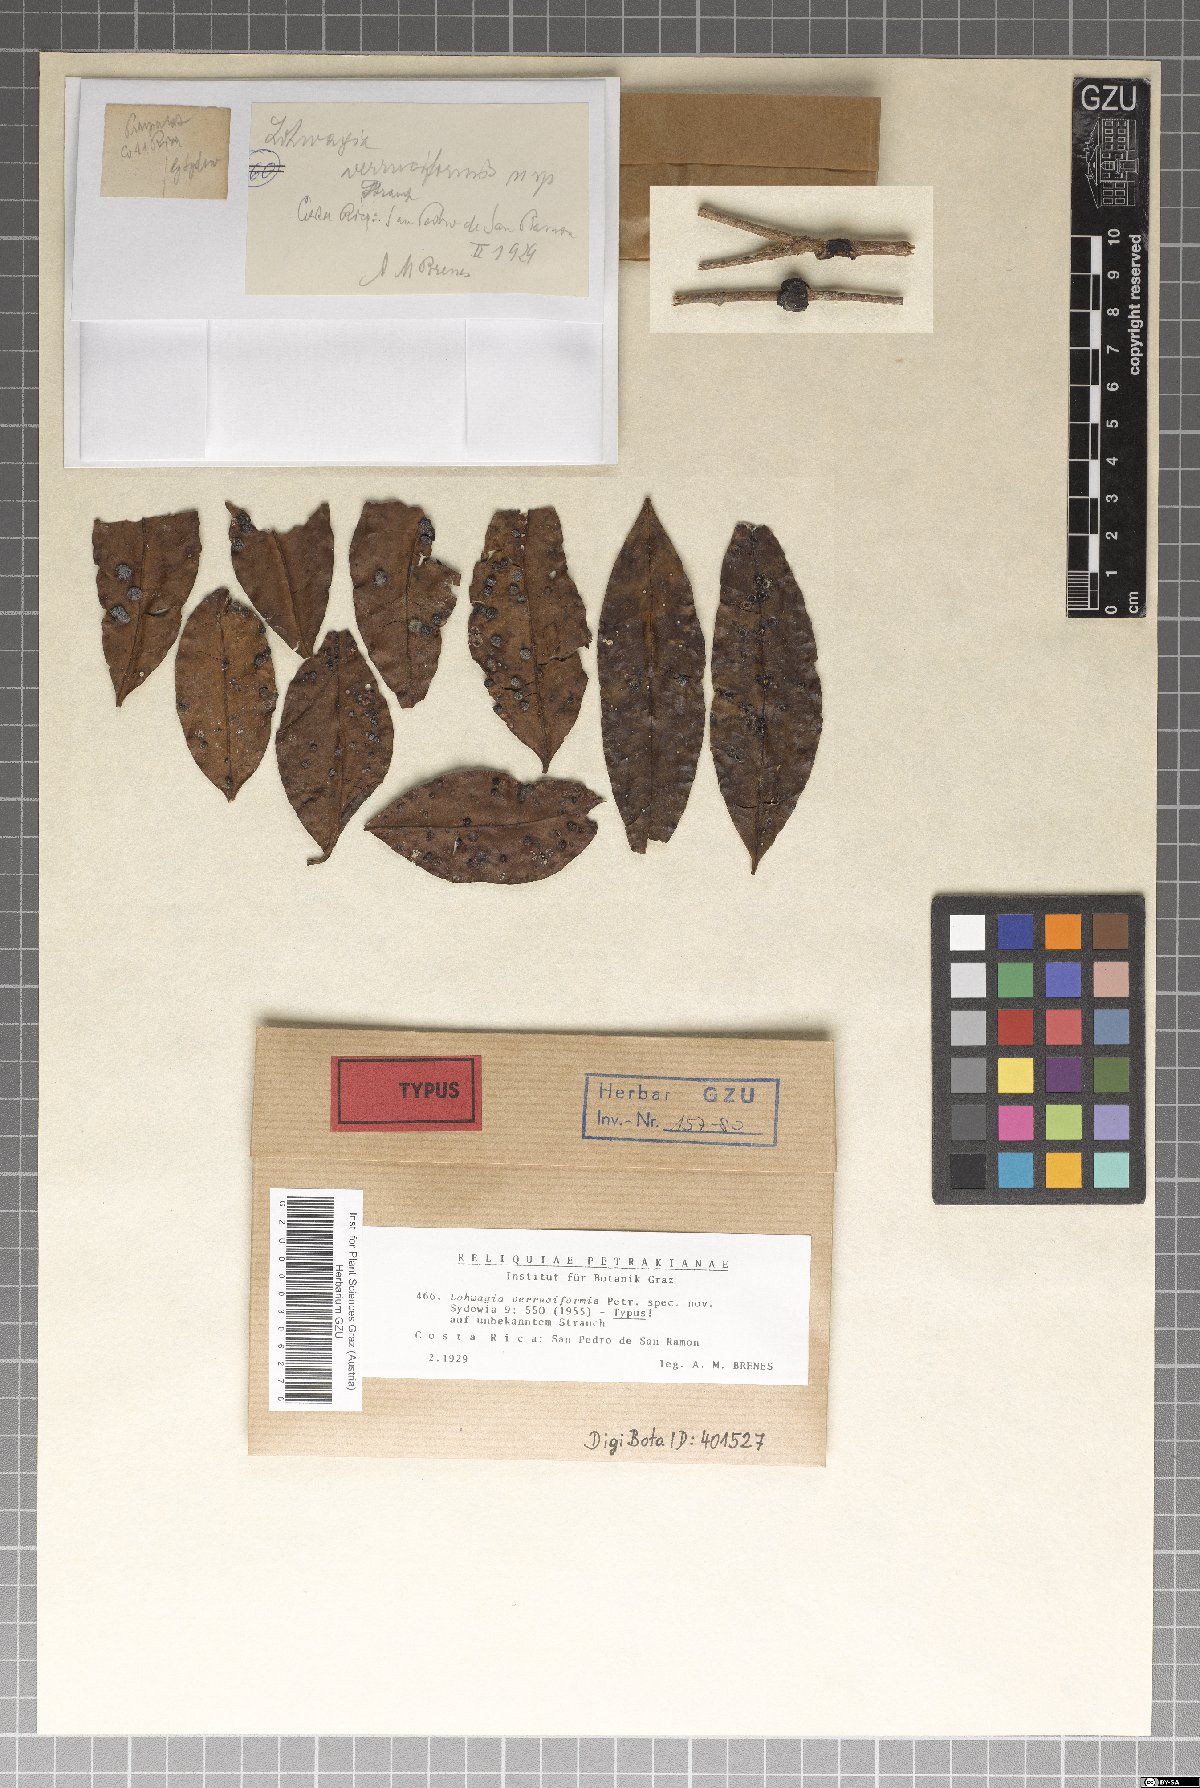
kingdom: Fungi
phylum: Ascomycota
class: Sordariomycetes
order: Phyllachorales
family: Phyllachoraceae
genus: Lohwagia
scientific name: Lohwagia verruciformis
